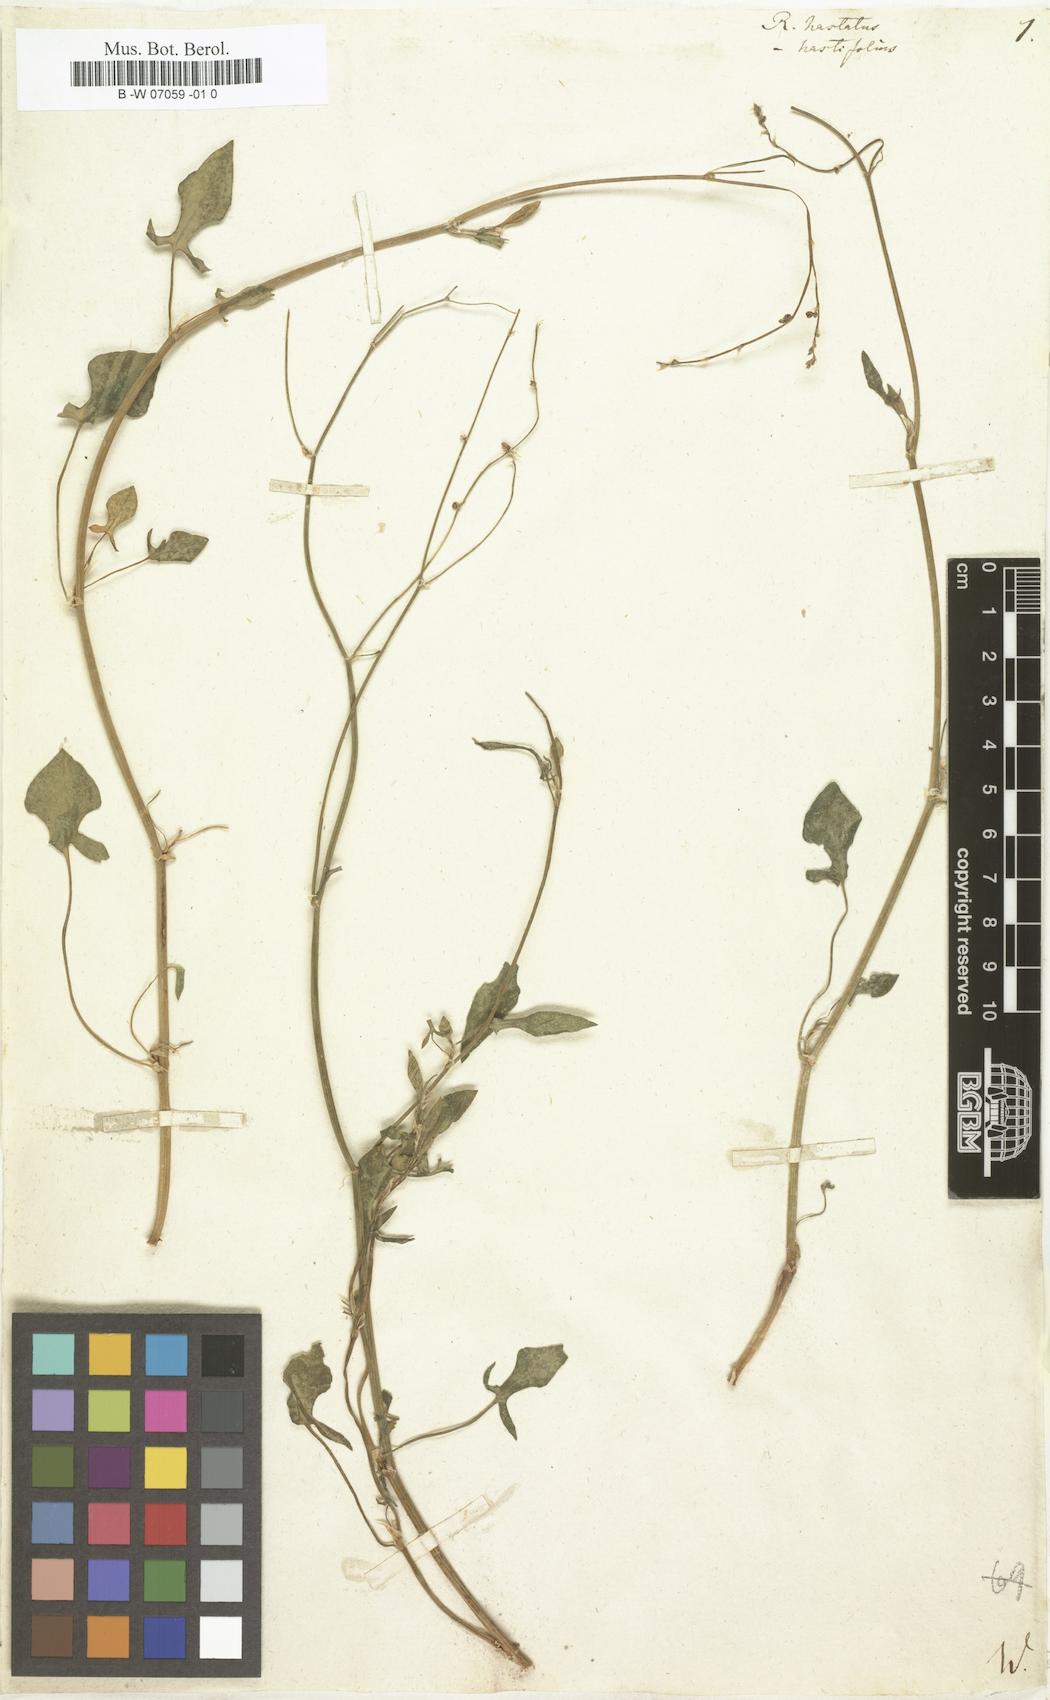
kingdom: Plantae
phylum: Tracheophyta
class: Magnoliopsida
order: Caryophyllales
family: Polygonaceae
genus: Rumex
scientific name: Rumex hastatus
